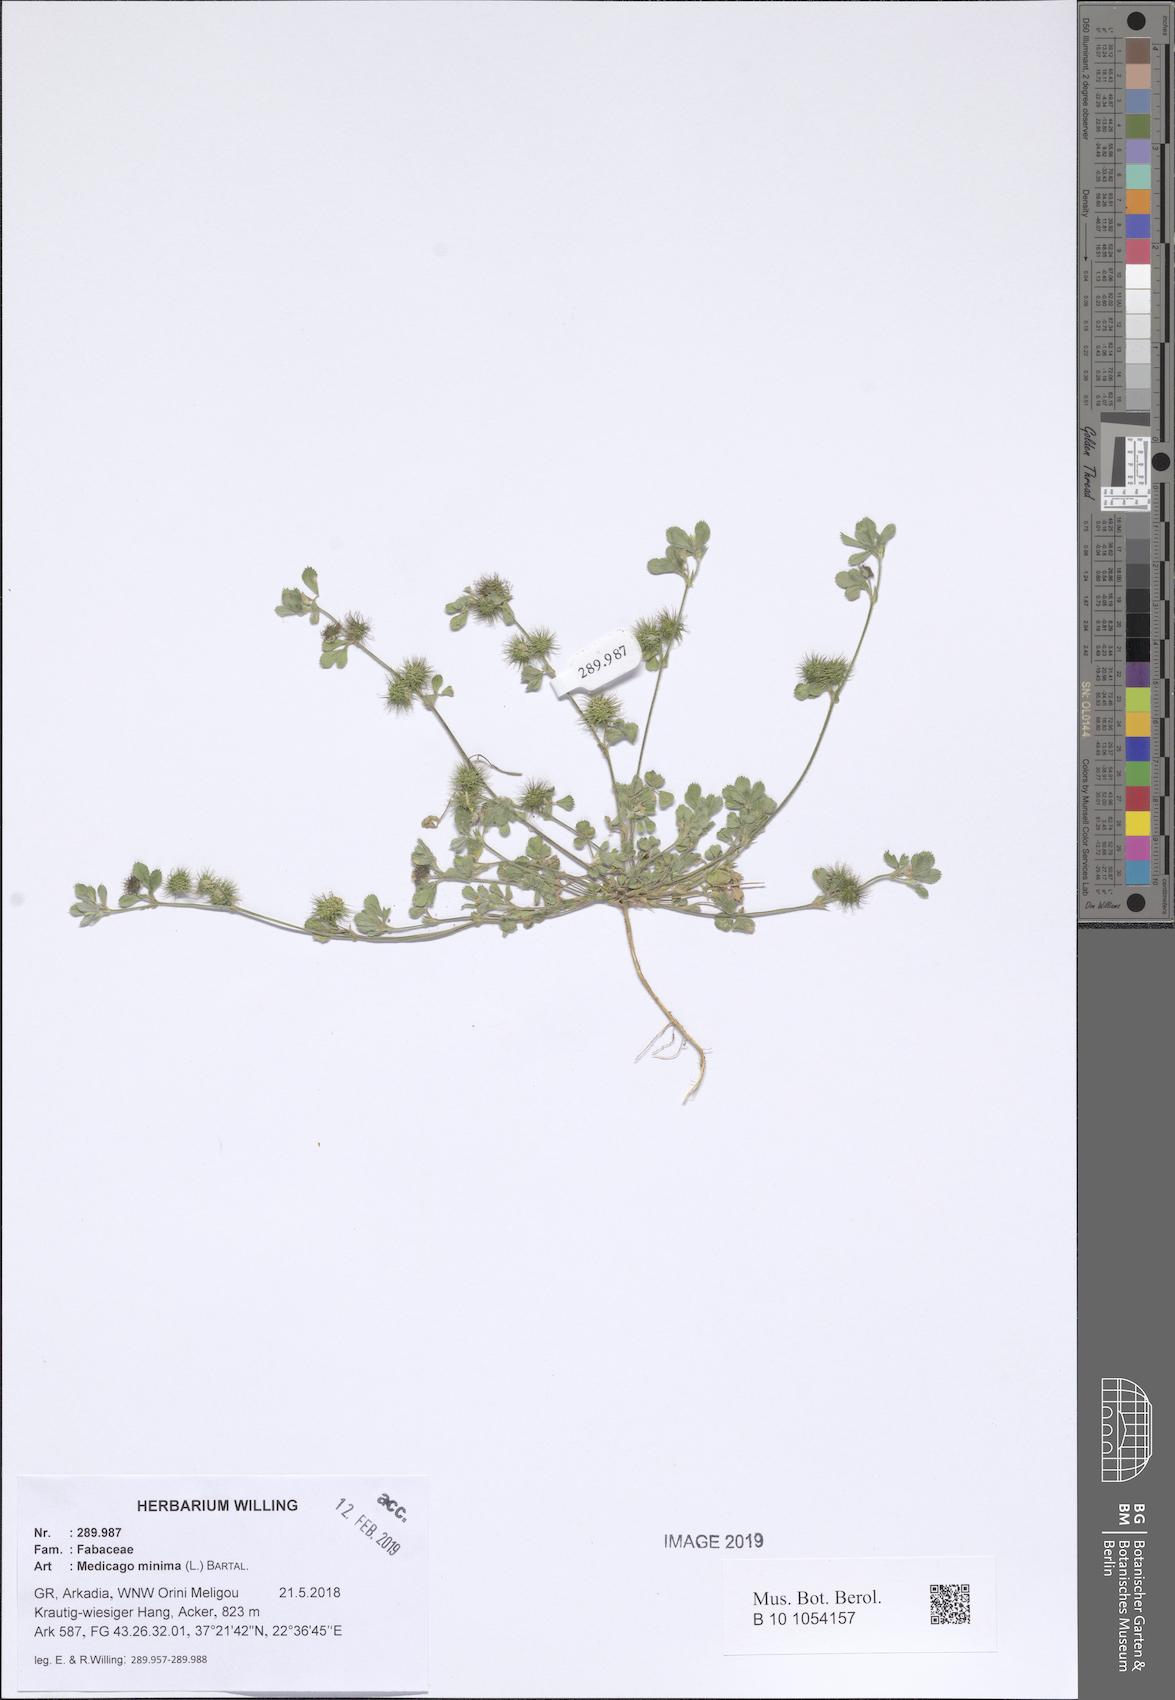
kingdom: Plantae
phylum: Tracheophyta
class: Magnoliopsida
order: Fabales
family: Fabaceae
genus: Medicago
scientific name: Medicago minima
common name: Little bur-clover
